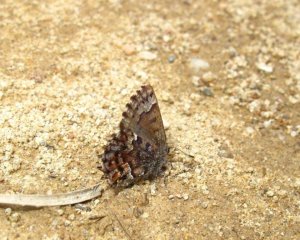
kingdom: Animalia
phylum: Arthropoda
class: Insecta
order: Lepidoptera
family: Lycaenidae
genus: Incisalia
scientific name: Incisalia lanoraieensis
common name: Bog Elfin
